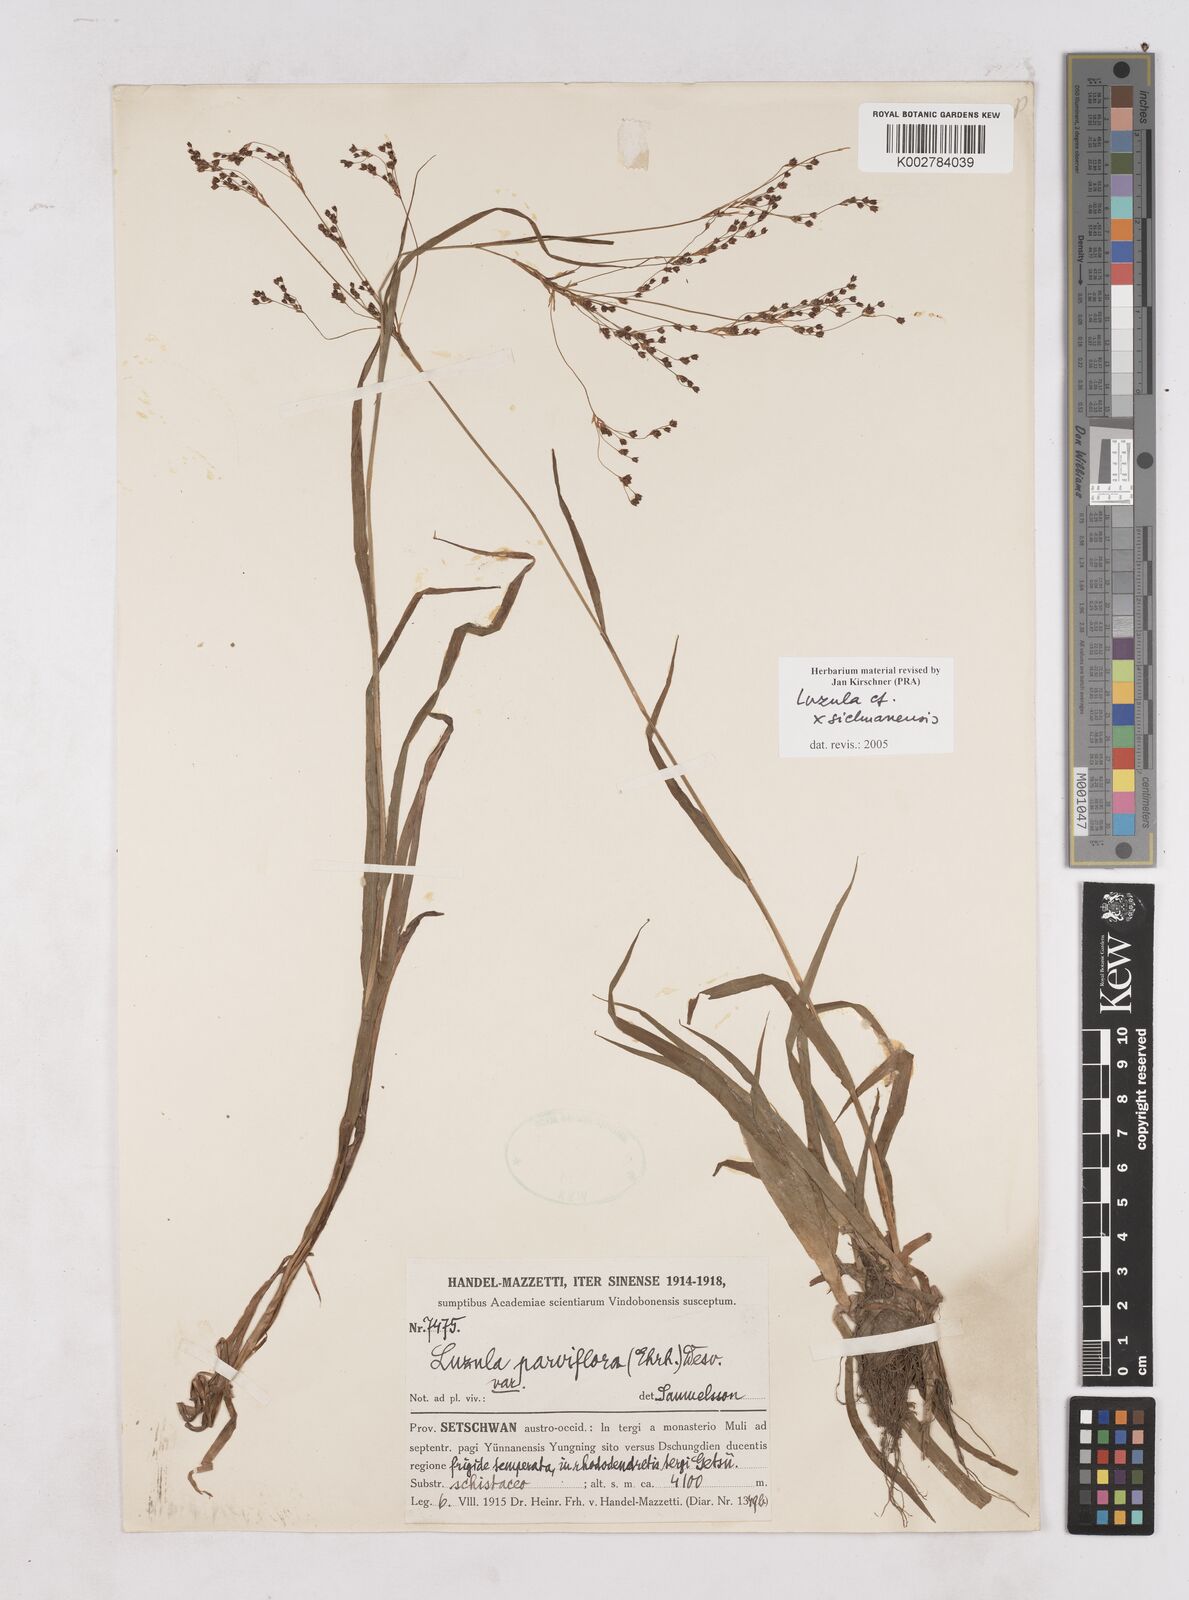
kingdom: Plantae
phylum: Tracheophyta
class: Liliopsida
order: Poales
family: Juncaceae
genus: Luzula
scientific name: Luzula sichuanensis
